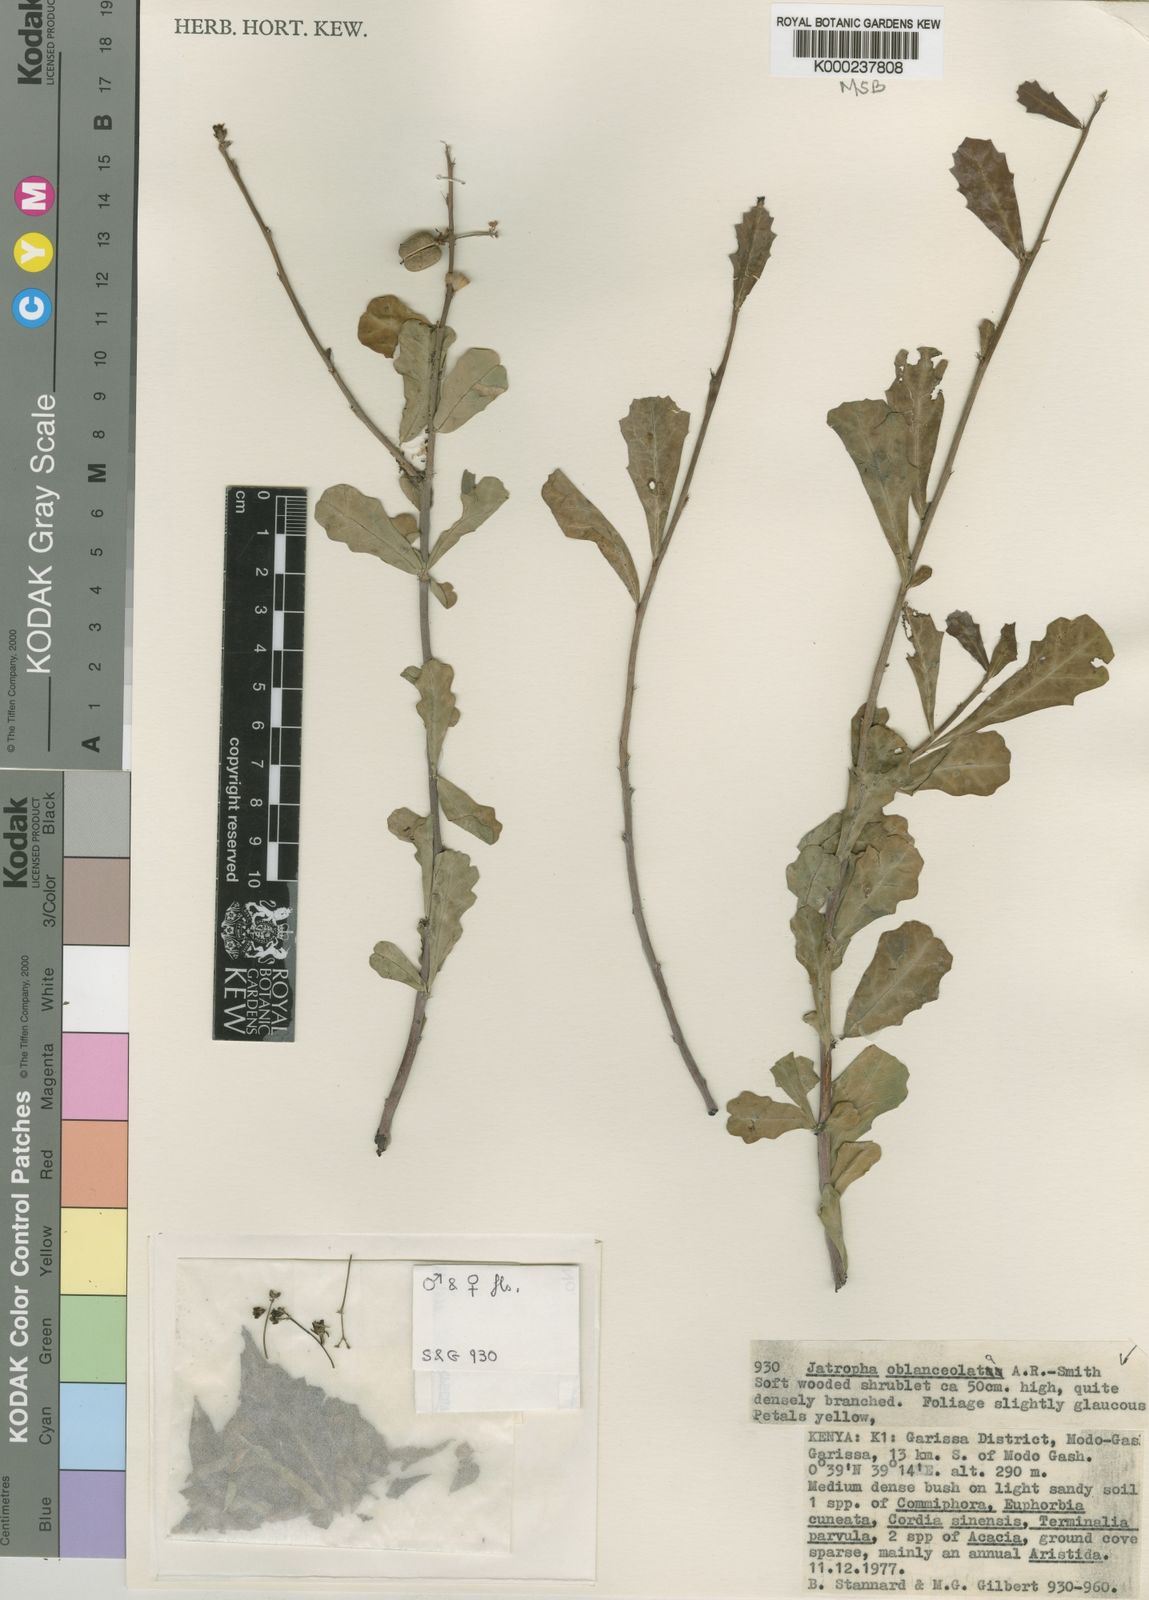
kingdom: Plantae
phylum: Tracheophyta
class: Magnoliopsida
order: Malpighiales
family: Euphorbiaceae
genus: Jatropha
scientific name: Jatropha
